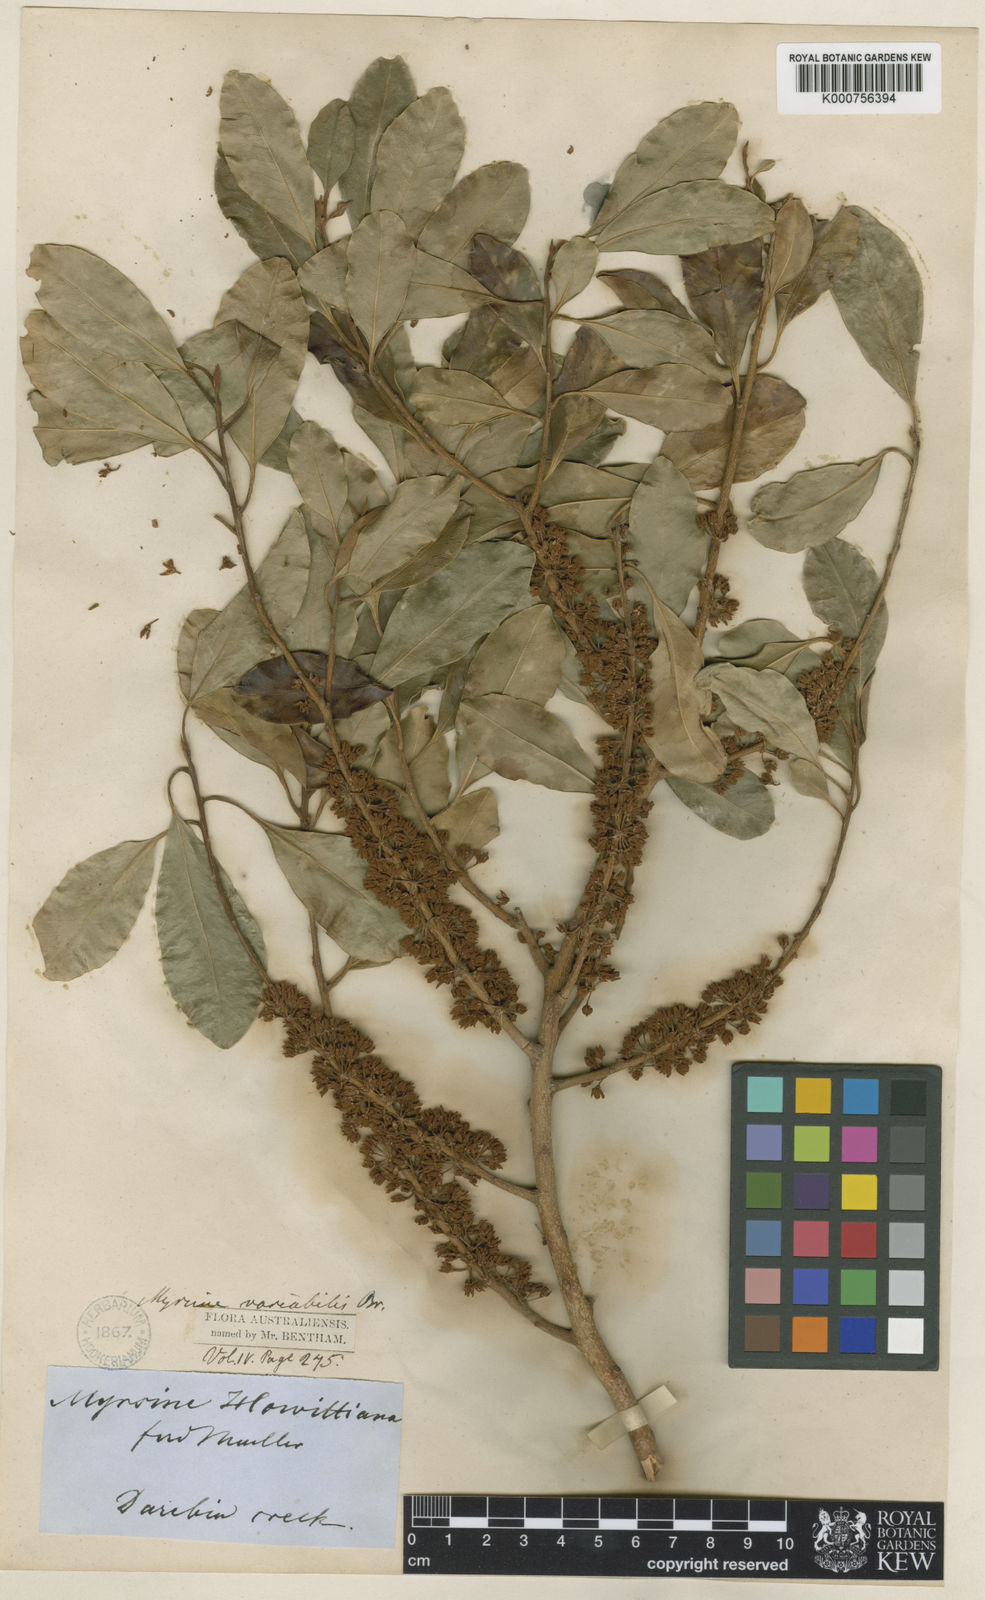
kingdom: Plantae
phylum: Tracheophyta
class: Magnoliopsida
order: Ericales
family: Primulaceae
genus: Myrsine
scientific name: Myrsine
